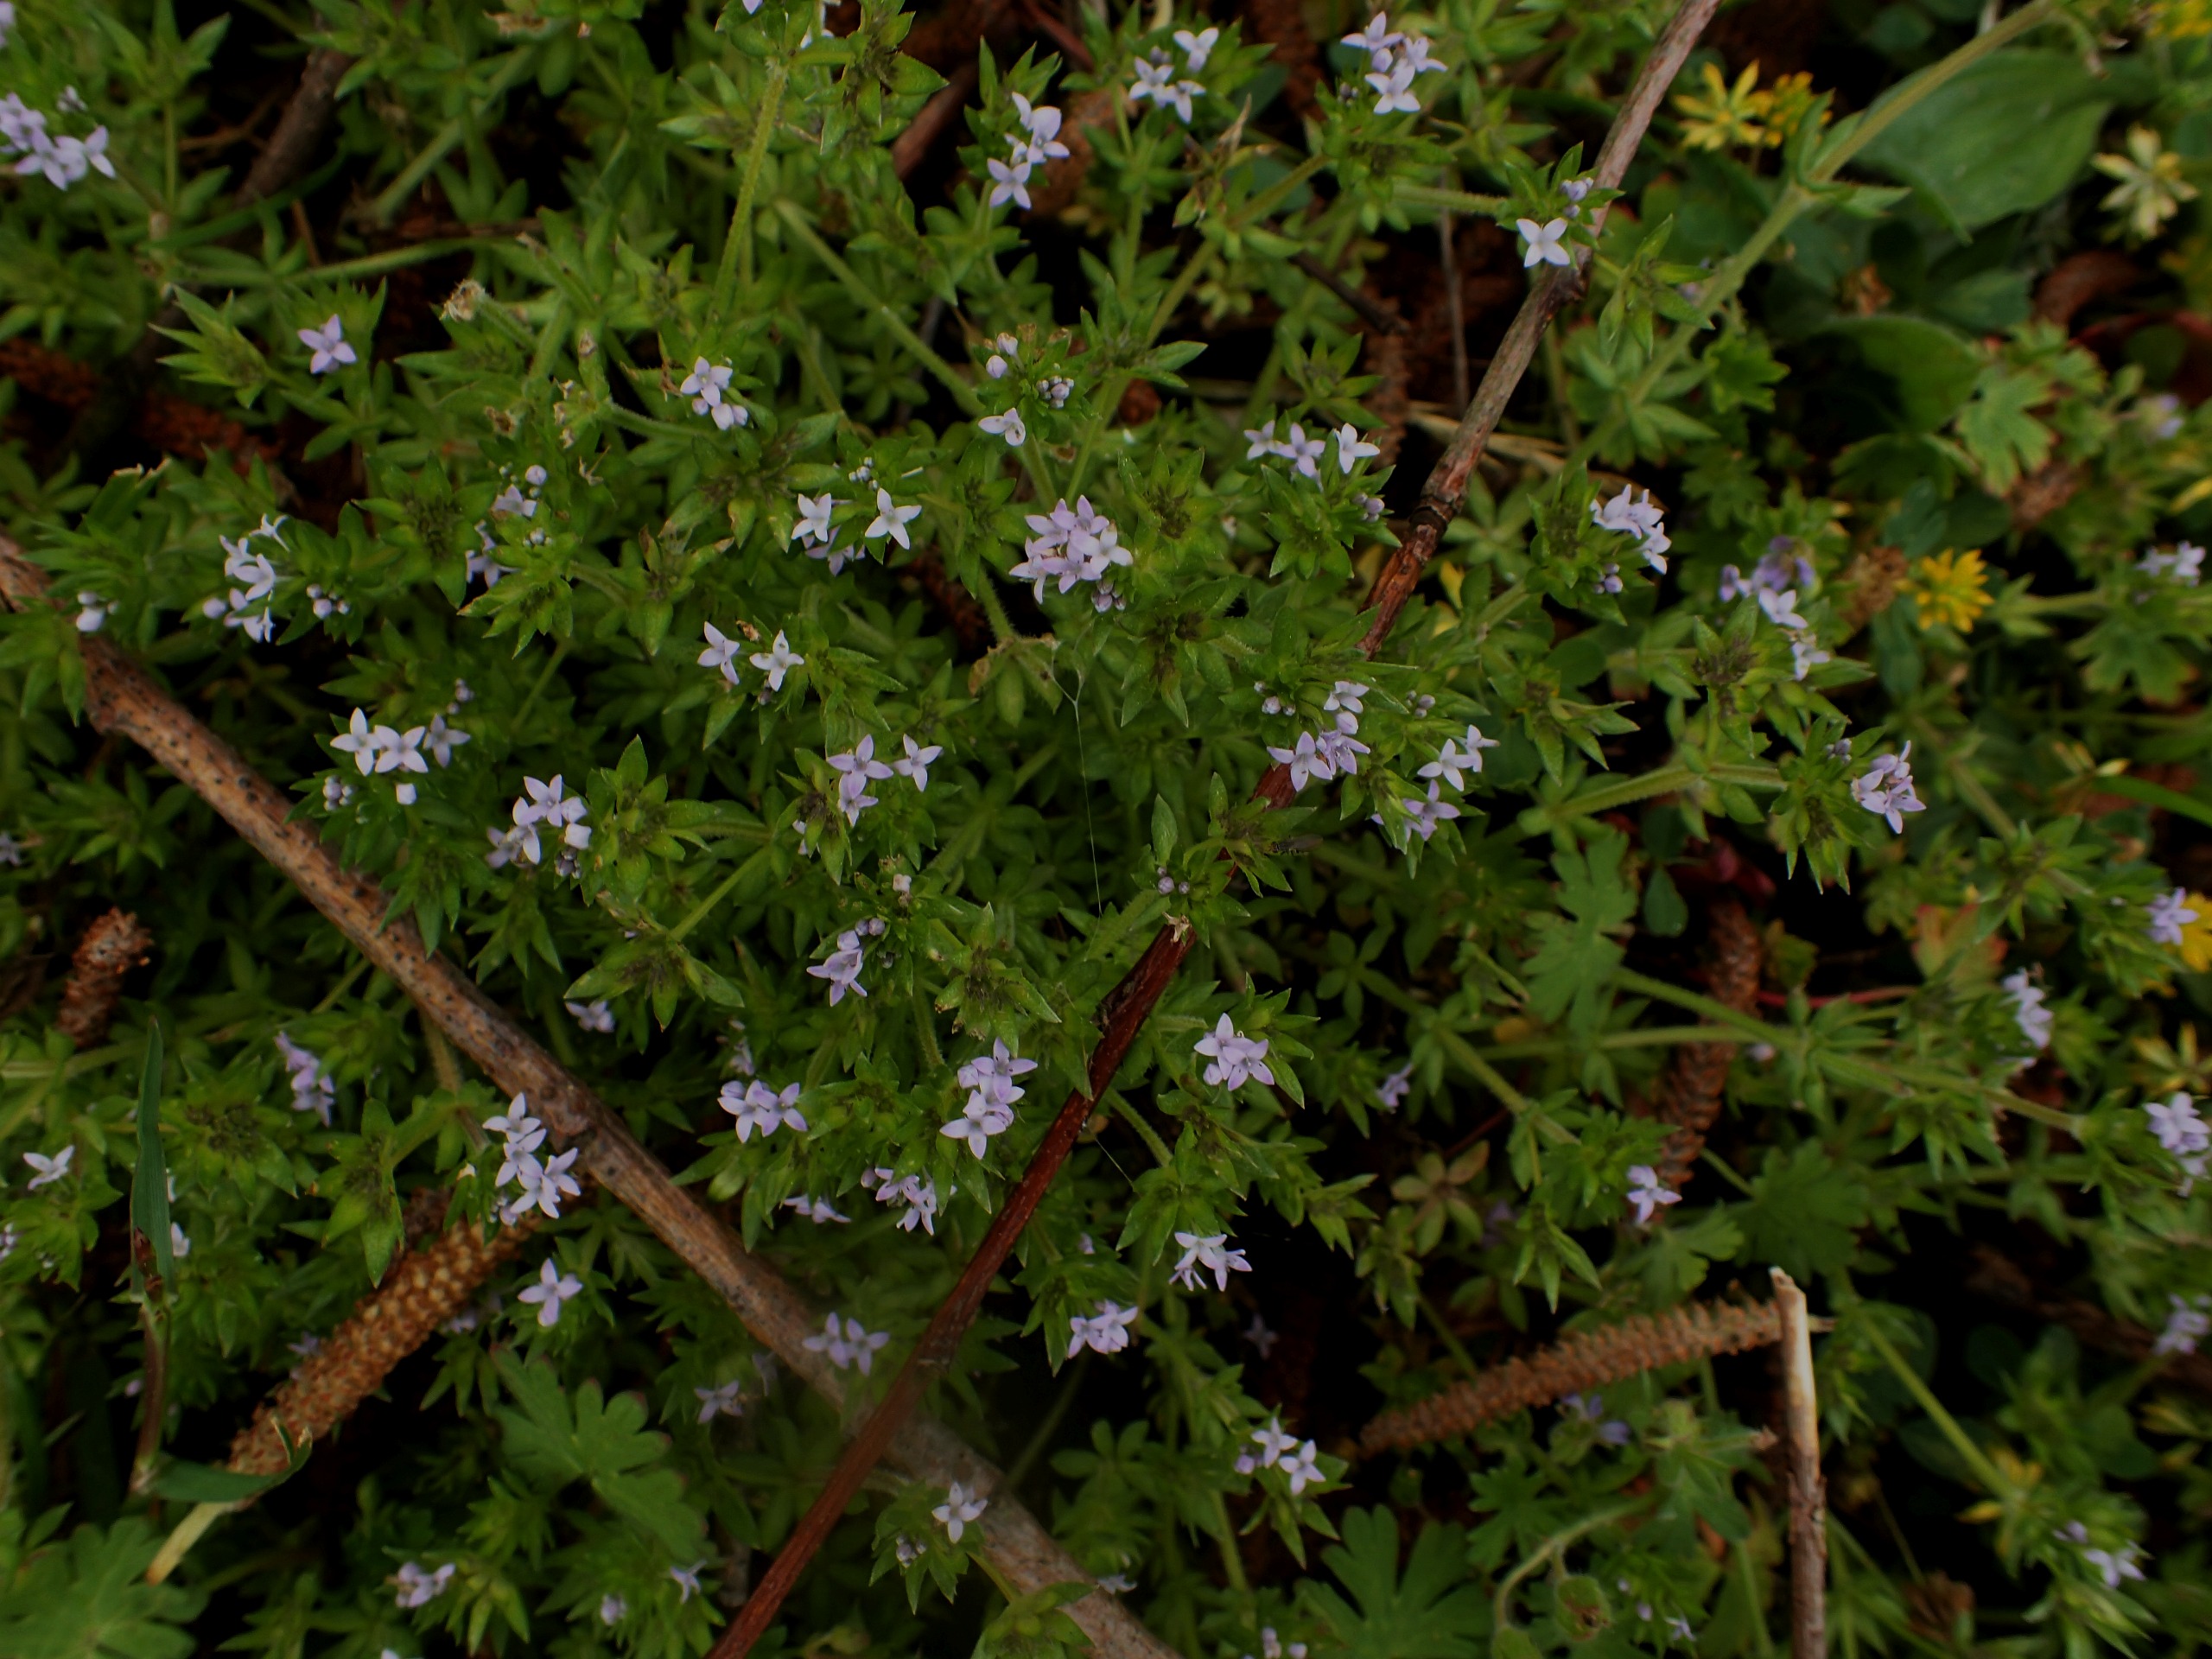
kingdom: Plantae
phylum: Tracheophyta
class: Magnoliopsida
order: Gentianales
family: Rubiaceae
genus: Sherardia
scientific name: Sherardia arvensis
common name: Blåstjerne
